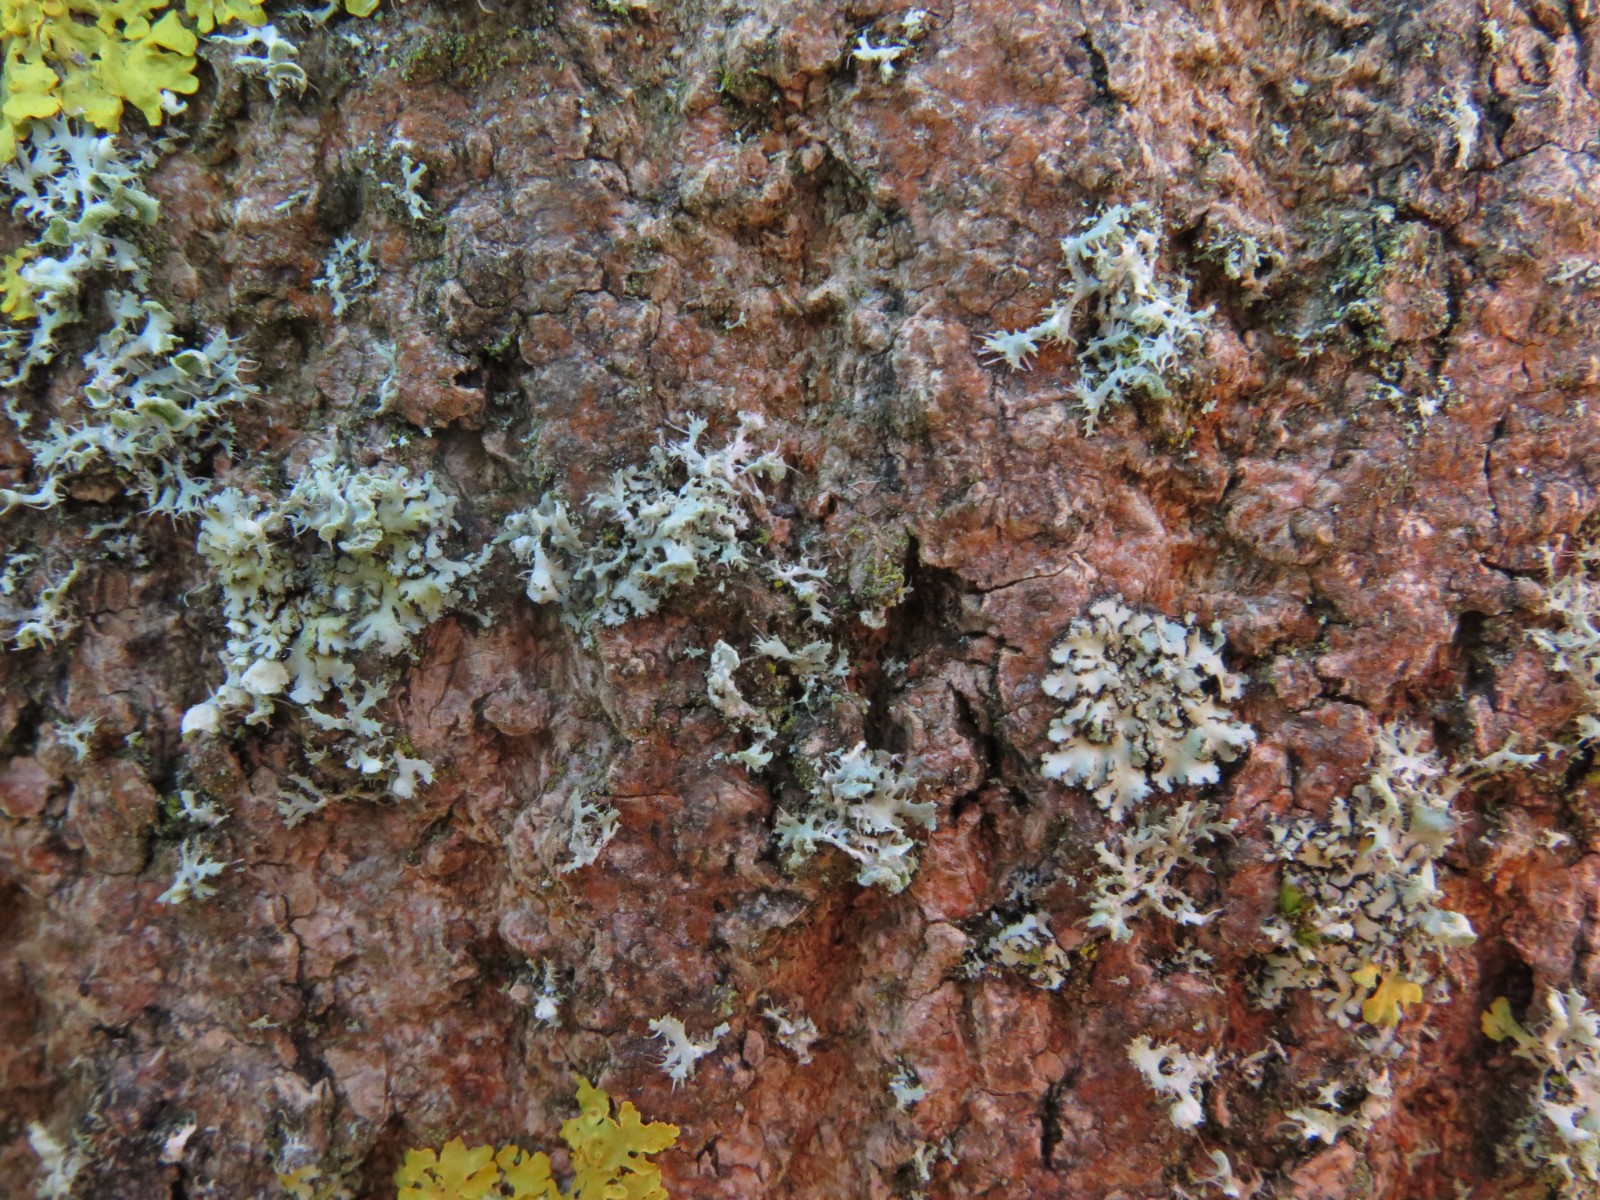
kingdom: Fungi
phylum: Ascomycota
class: Lecanoromycetes
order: Caliciales
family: Physciaceae
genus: Physcia
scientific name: Physcia tenella
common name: spæd rosetlav
